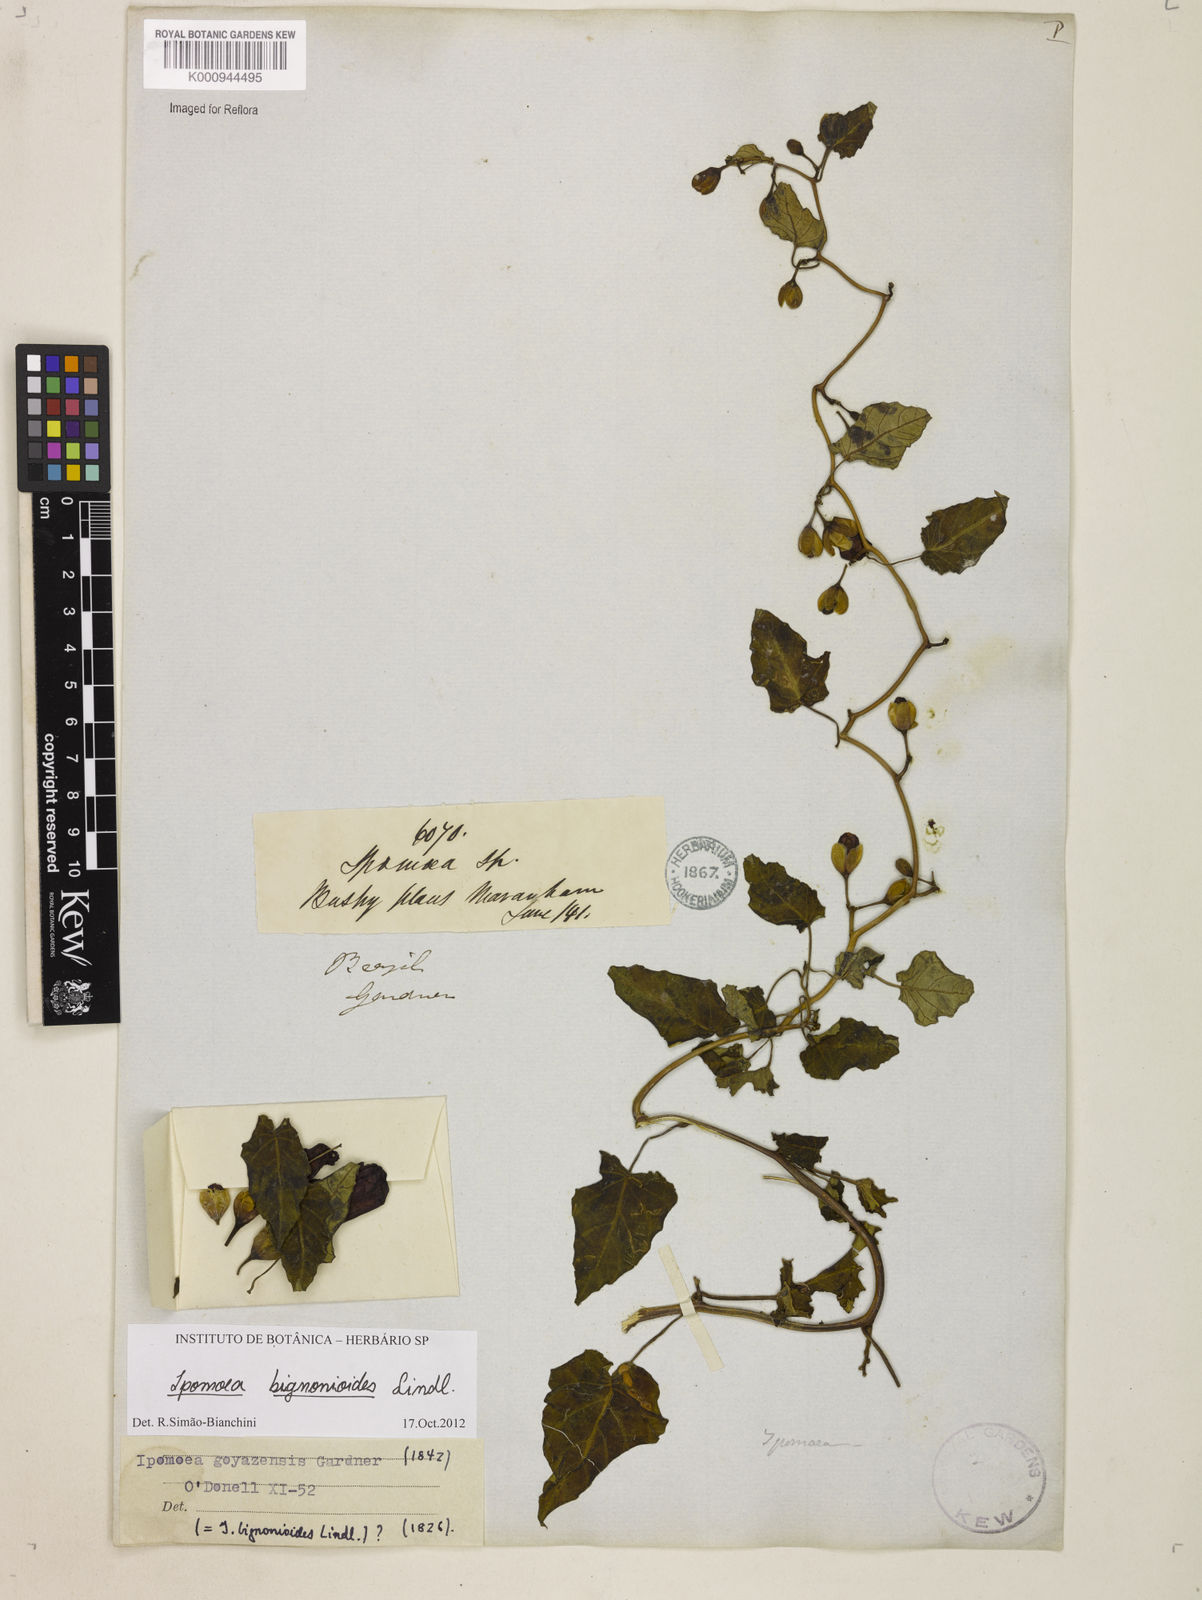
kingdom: Plantae
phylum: Tracheophyta
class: Magnoliopsida
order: Solanales
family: Convolvulaceae
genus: Ipomoea
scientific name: Ipomoea mauritiana
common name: Mauritanian convolvulus
